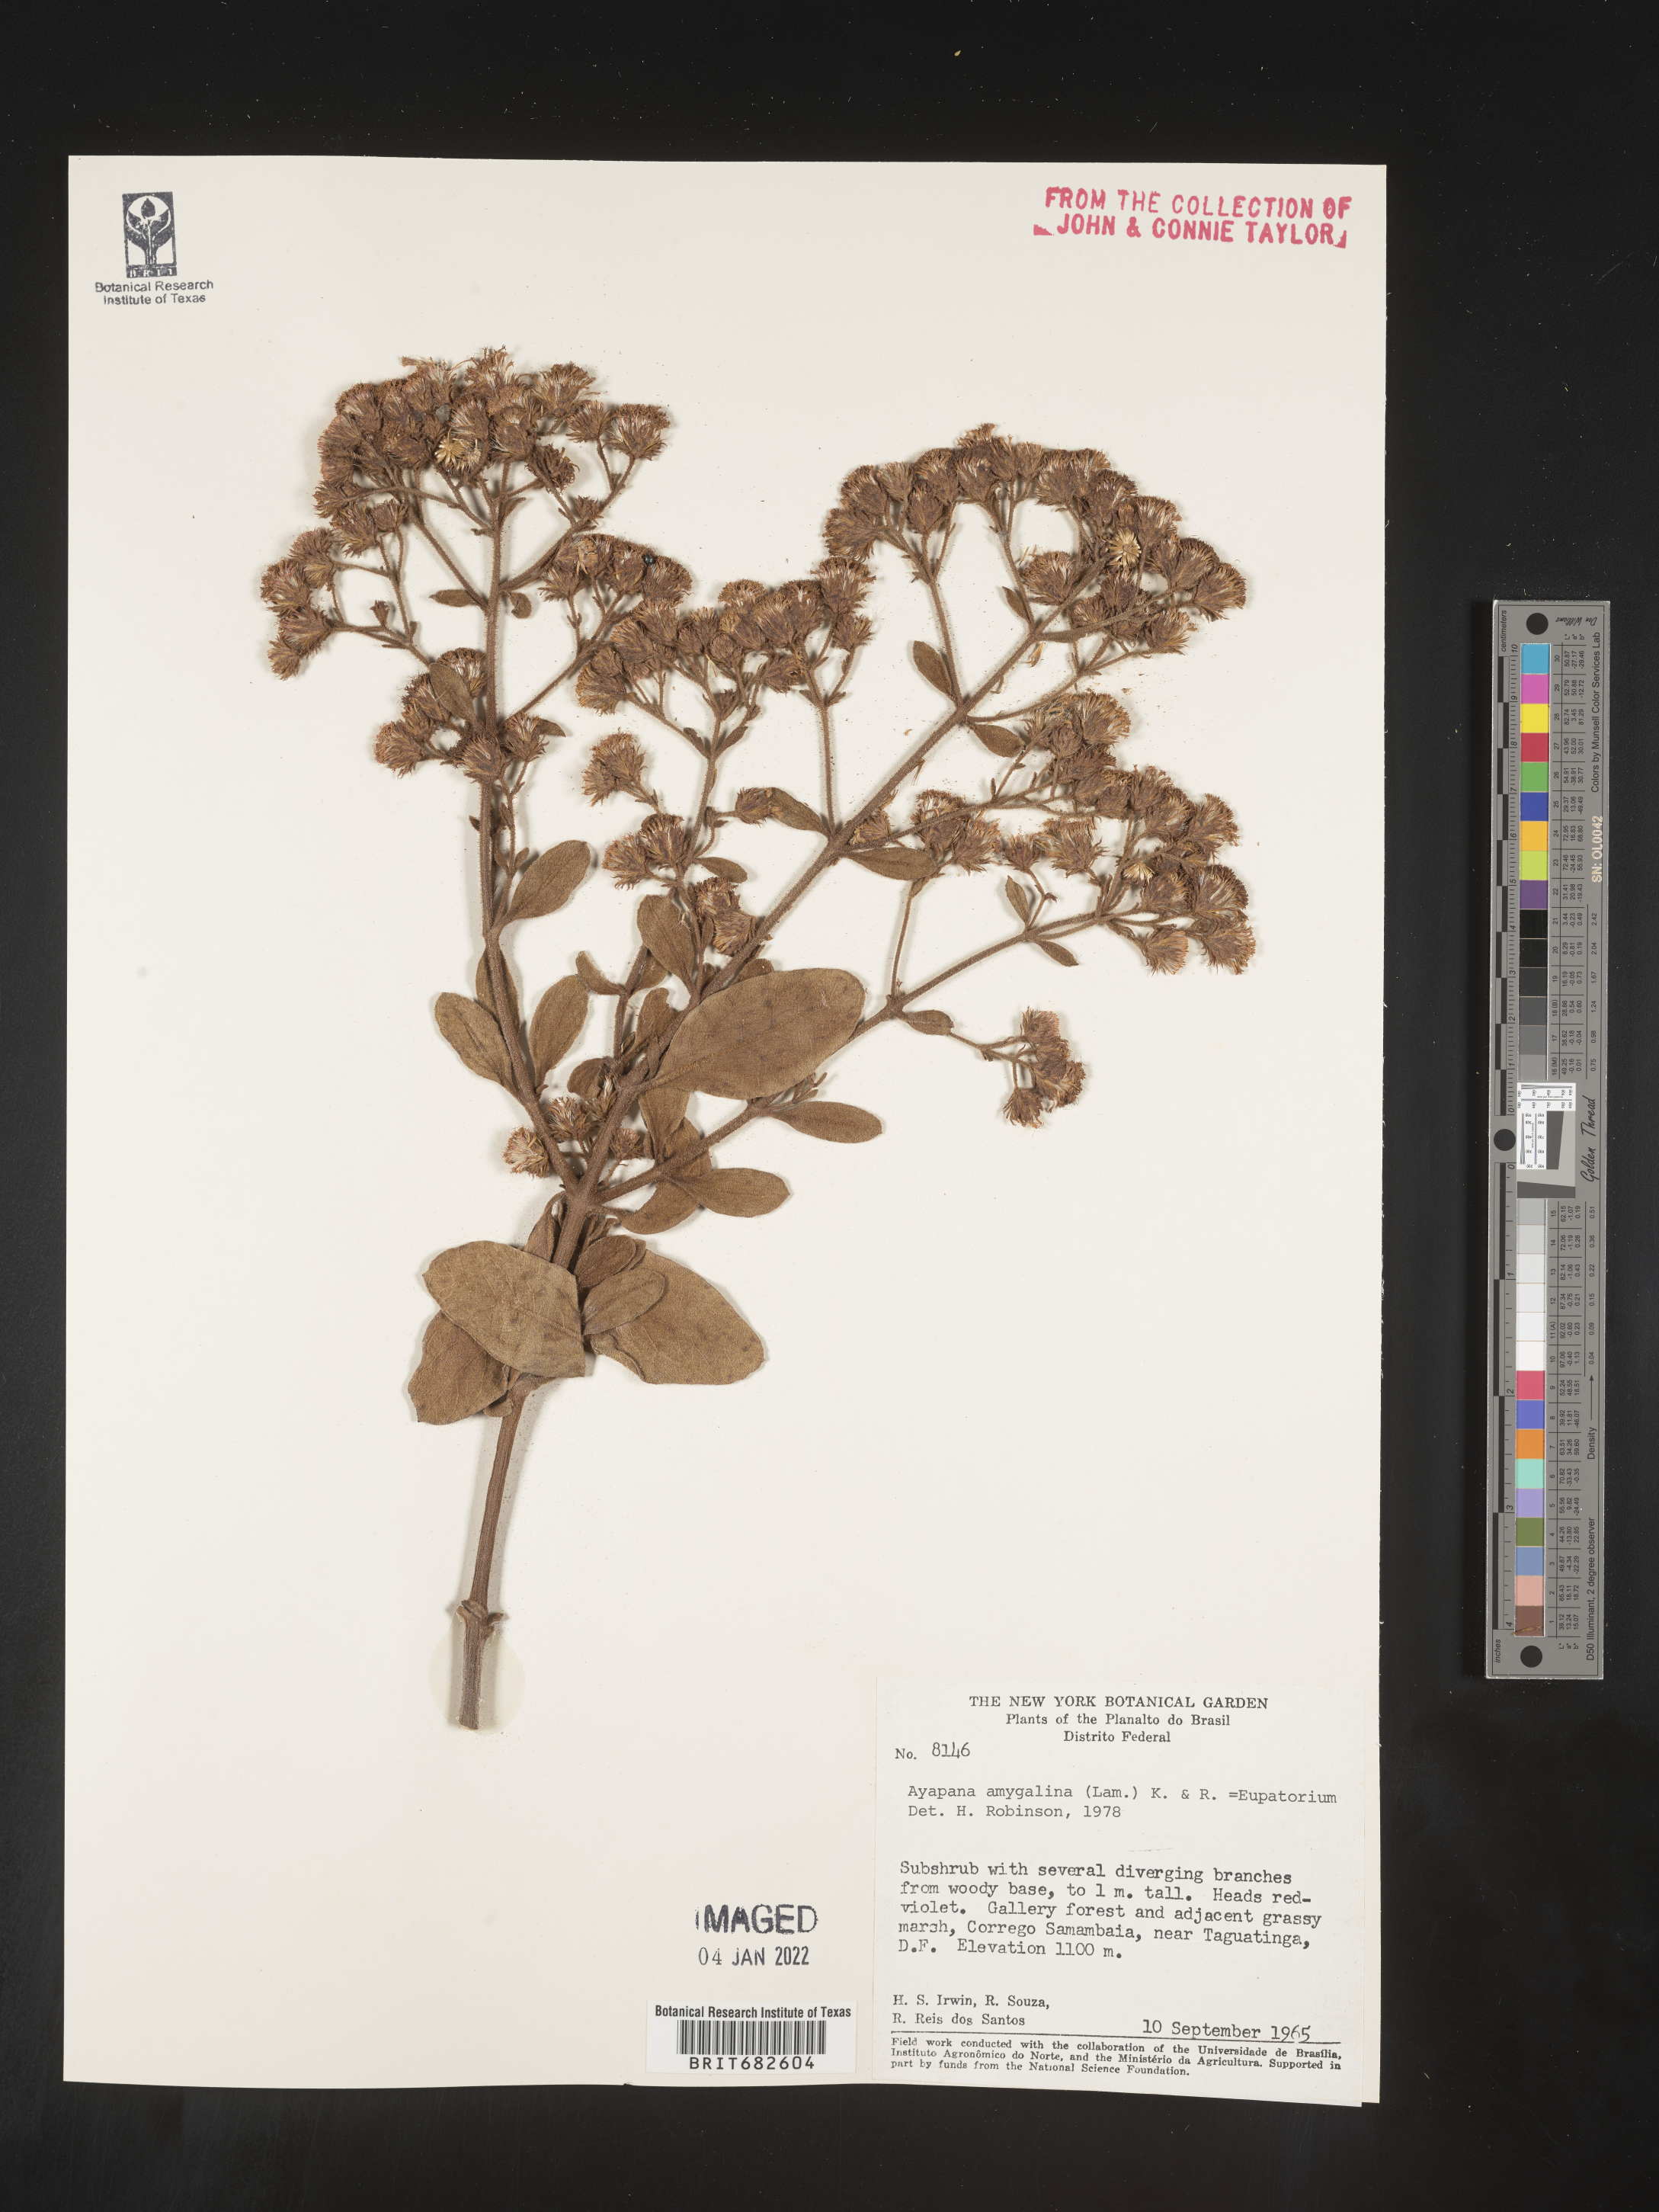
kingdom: Plantae
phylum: Tracheophyta
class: Magnoliopsida
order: Asterales
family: Asteraceae
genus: Ayapana
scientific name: Ayapana
